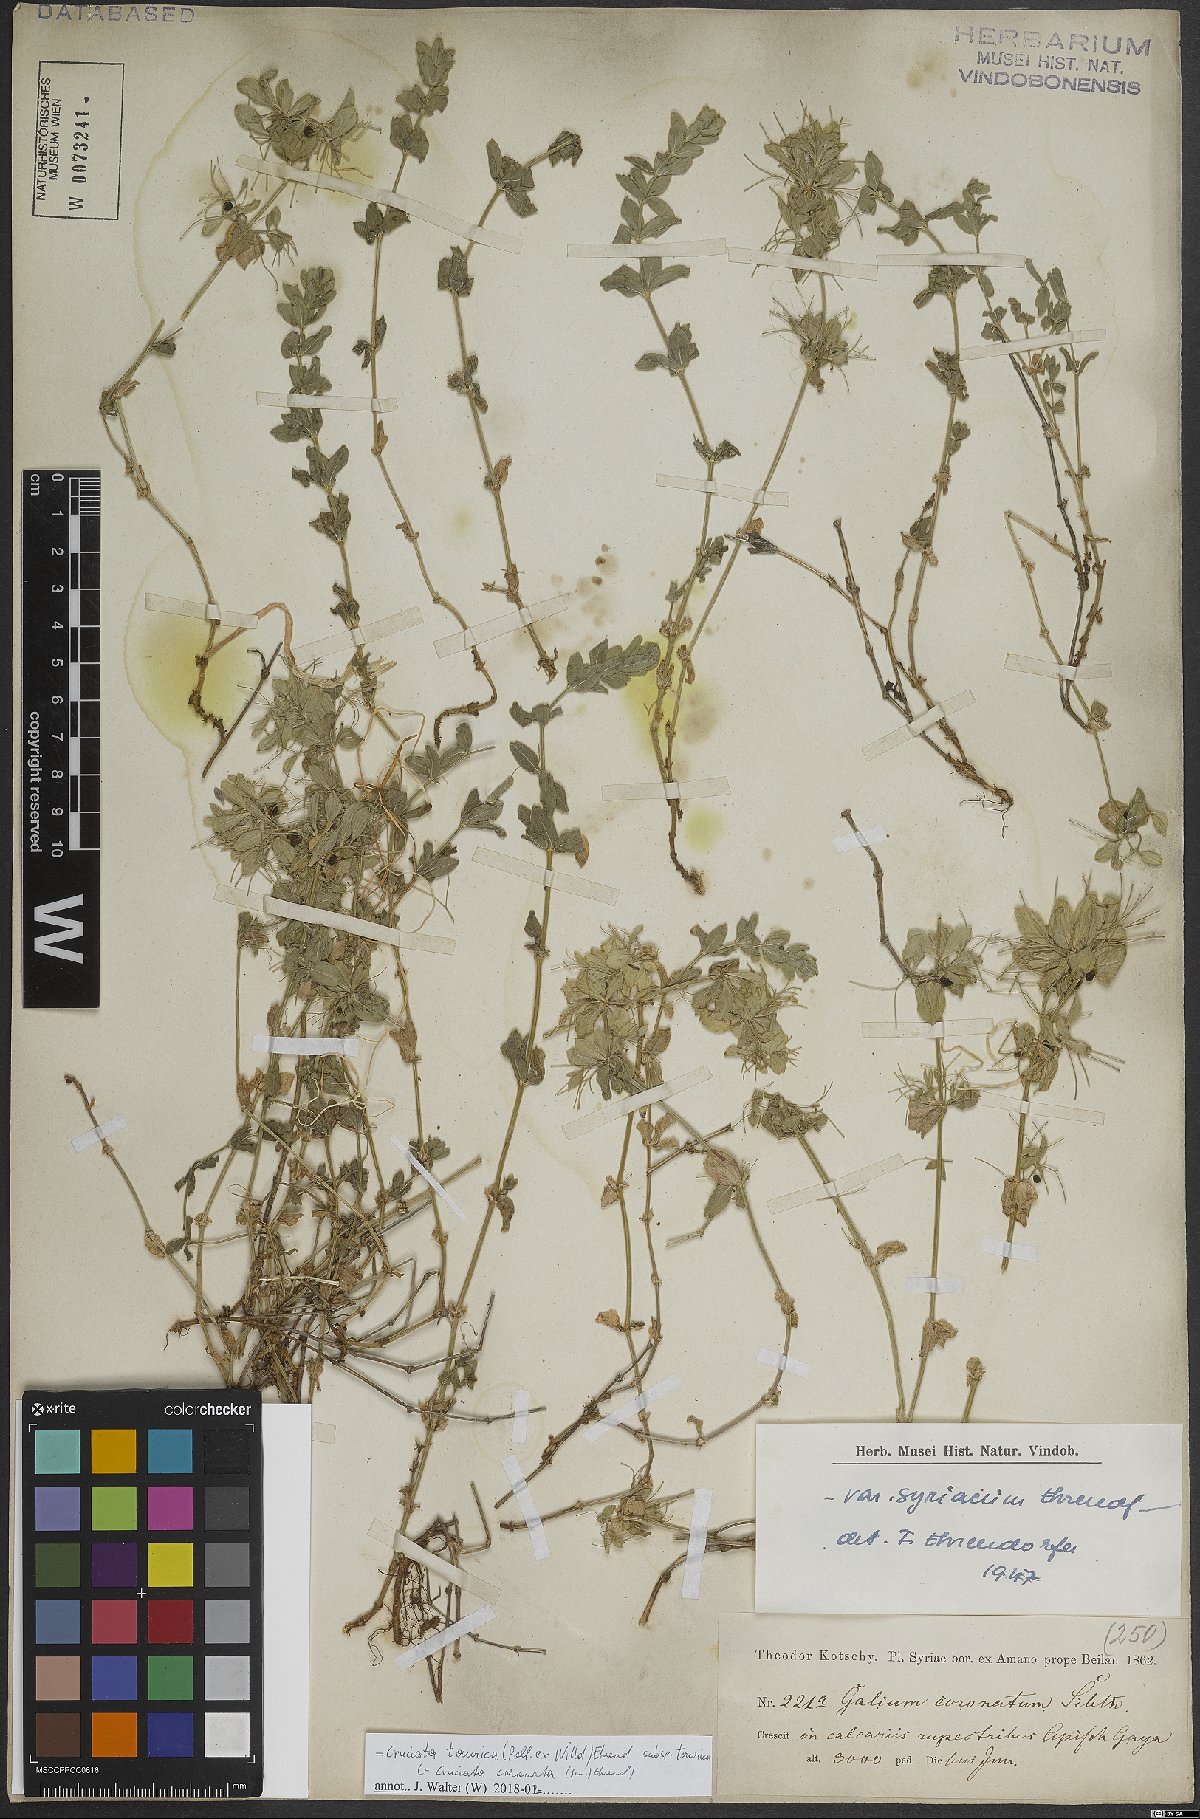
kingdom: Plantae
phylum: Tracheophyta
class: Magnoliopsida
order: Gentianales
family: Rubiaceae
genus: Cruciata
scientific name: Cruciata taurica
